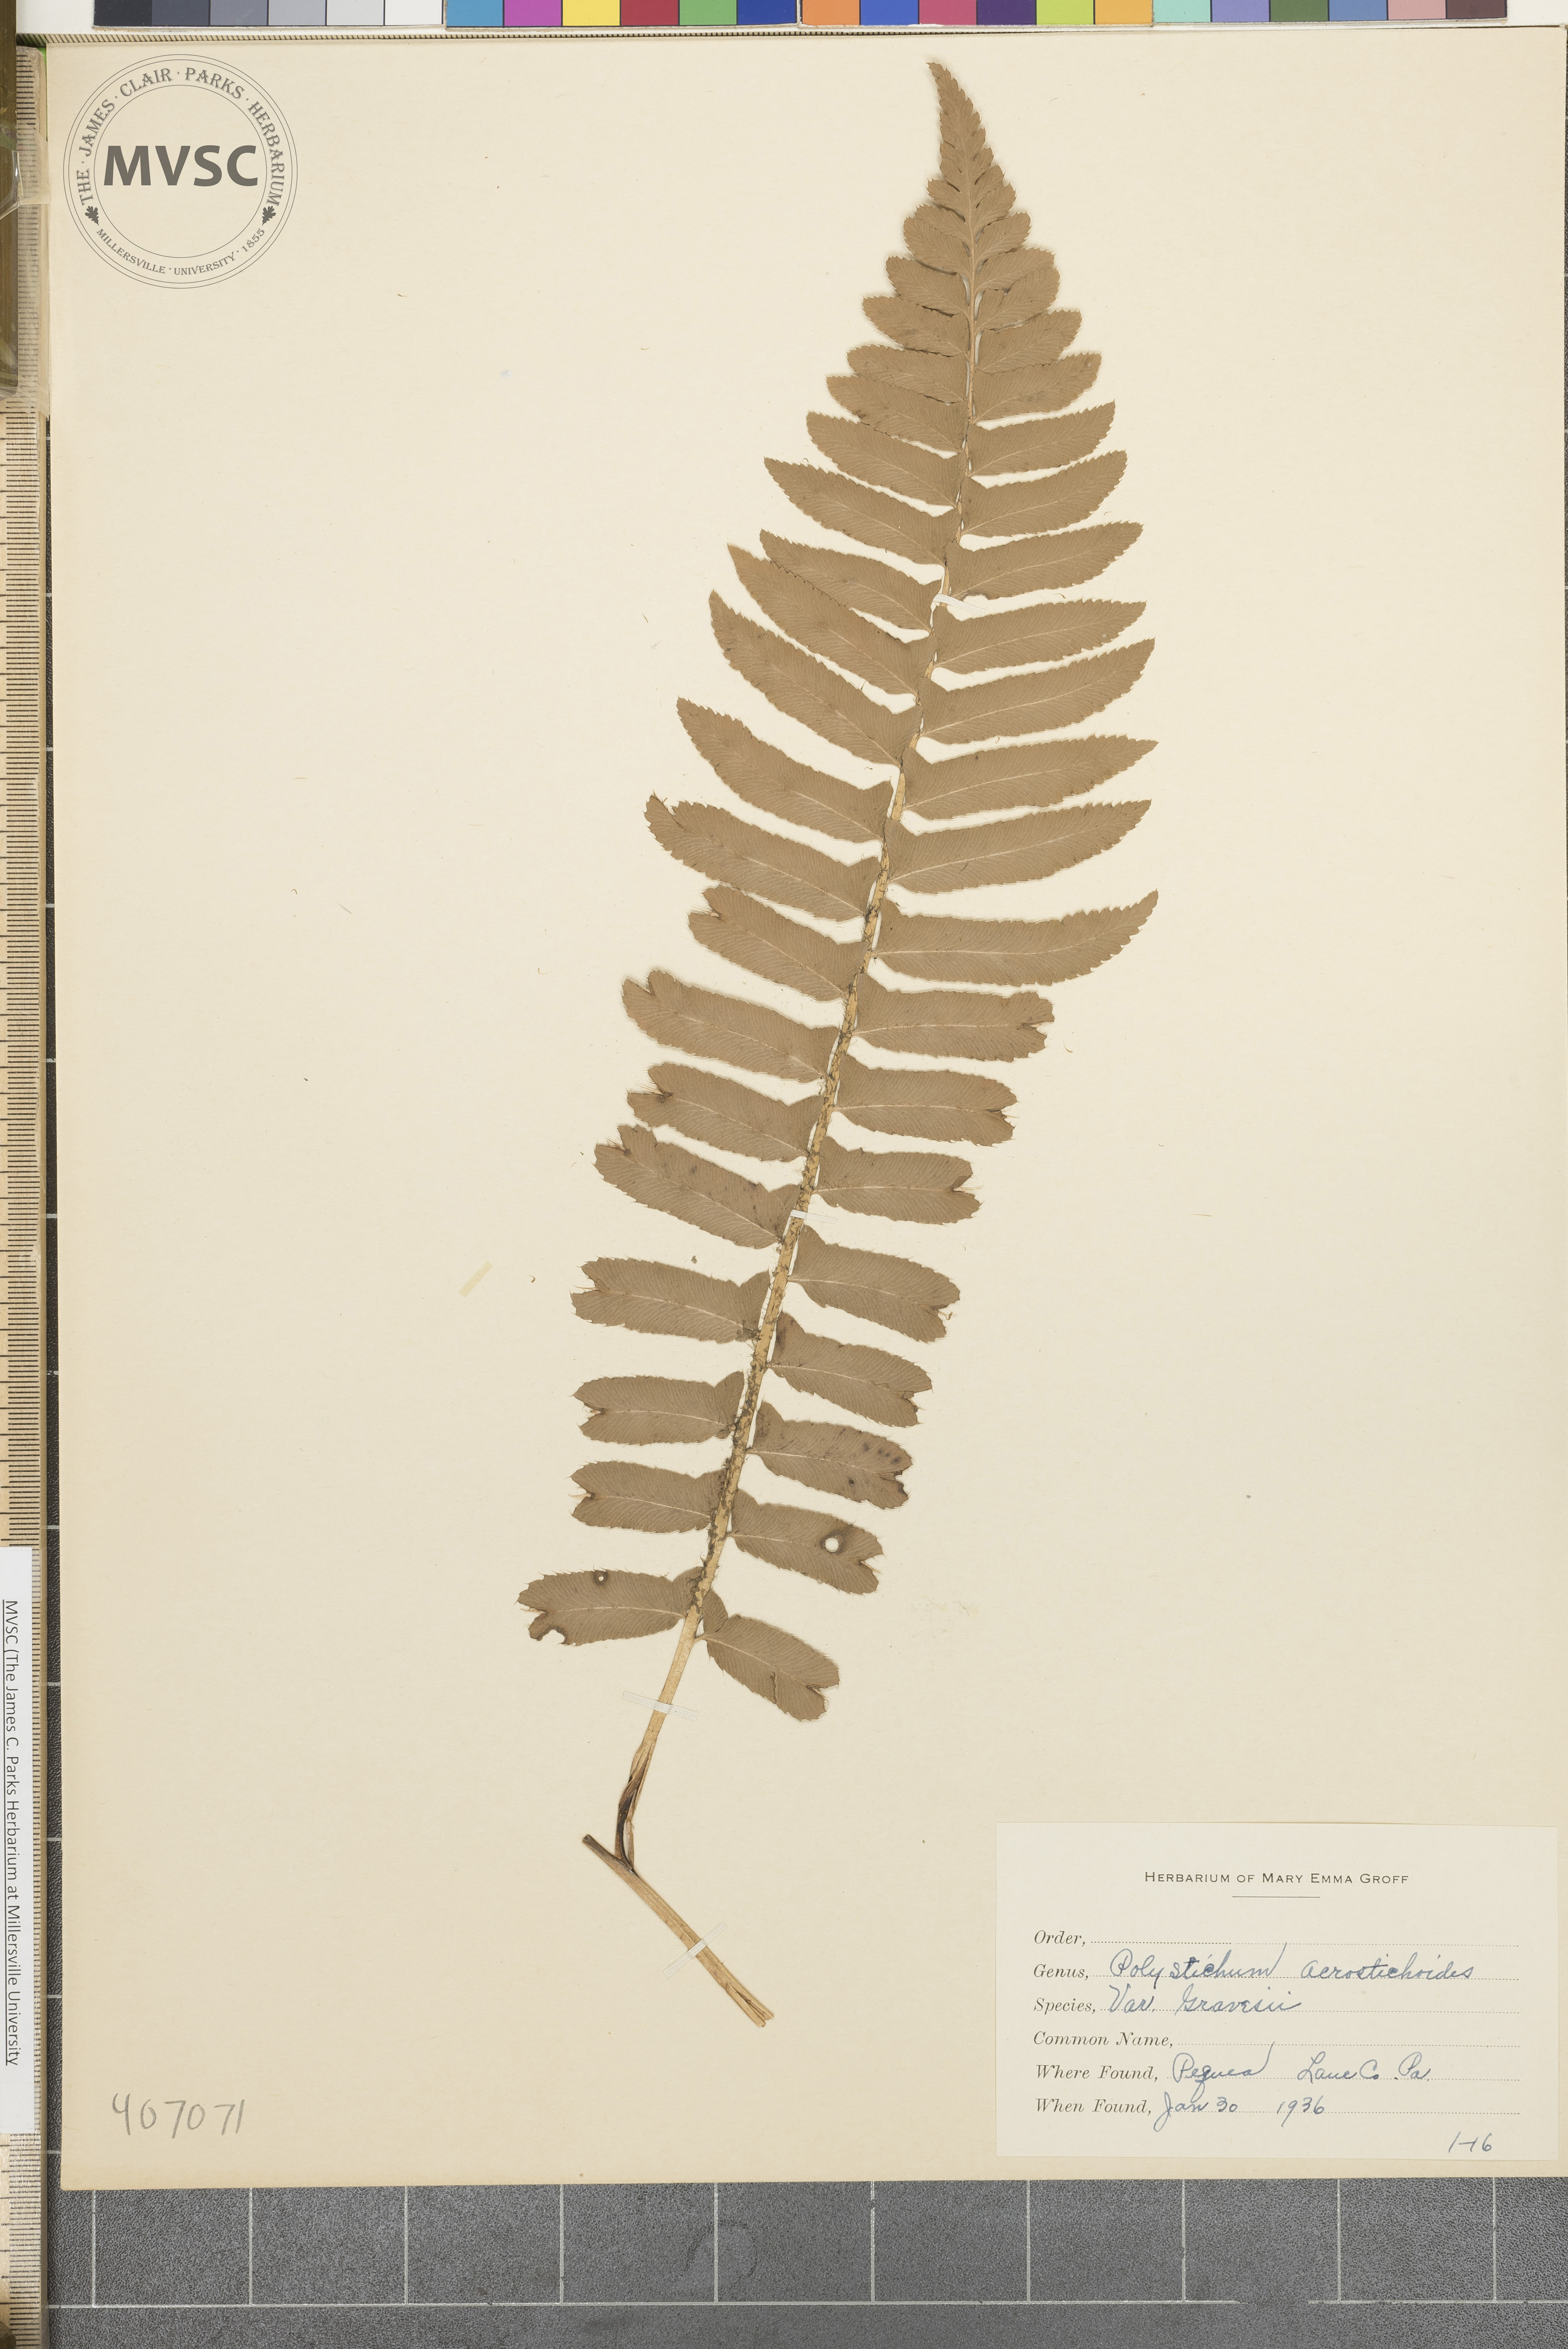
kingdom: Plantae
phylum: Tracheophyta
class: Polypodiopsida
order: Polypodiales
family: Dryopteridaceae
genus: Polystichum
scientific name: Polystichum acrostichoides
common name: Christmas fern
